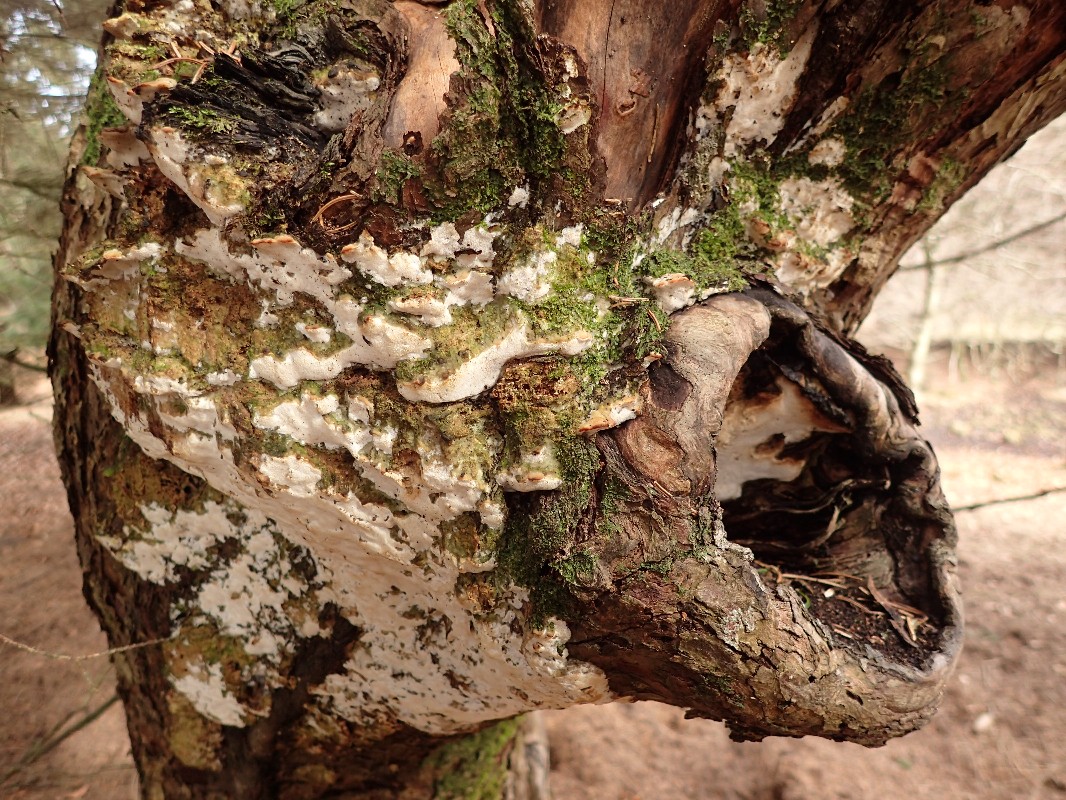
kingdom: Fungi
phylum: Basidiomycota
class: Agaricomycetes
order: Hymenochaetales
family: Oxyporaceae
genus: Oxyporus
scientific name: Oxyporus populinus
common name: sammenvokset trylleporesvamp
